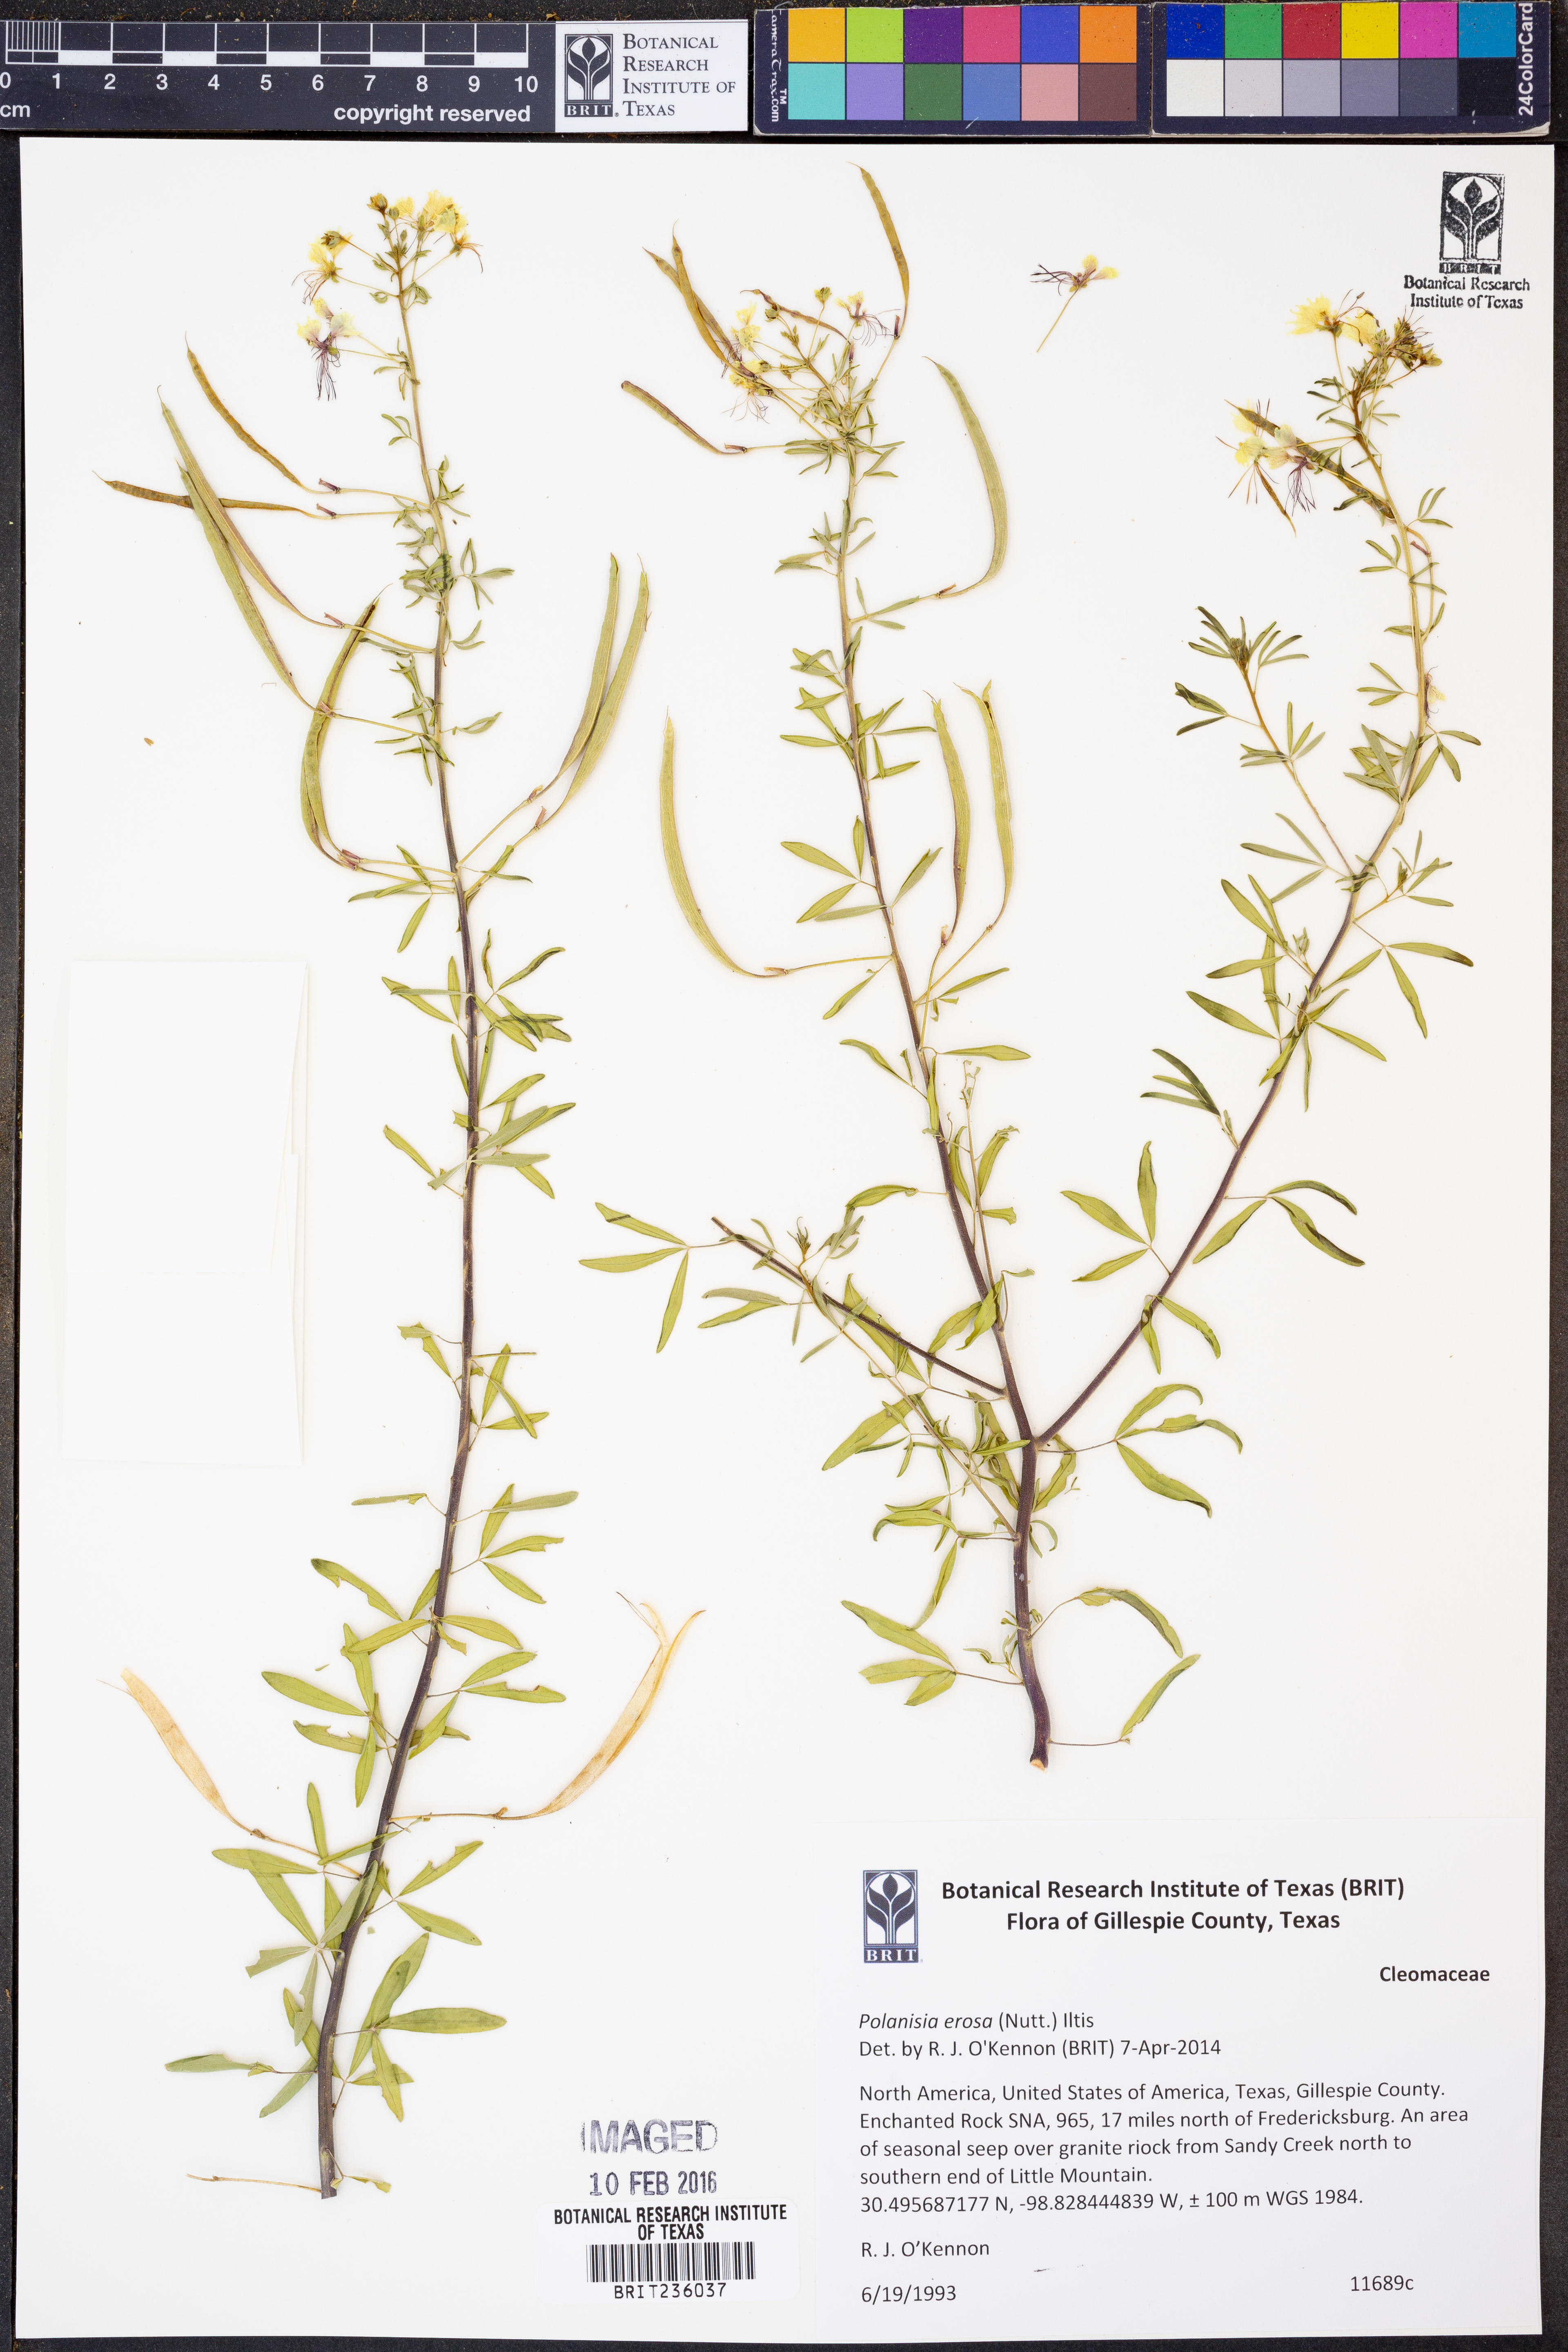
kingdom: Plantae
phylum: Tracheophyta
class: Magnoliopsida
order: Brassicales
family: Cleomaceae
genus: Polanisia
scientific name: Polanisia erosa
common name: Large clammyweed
